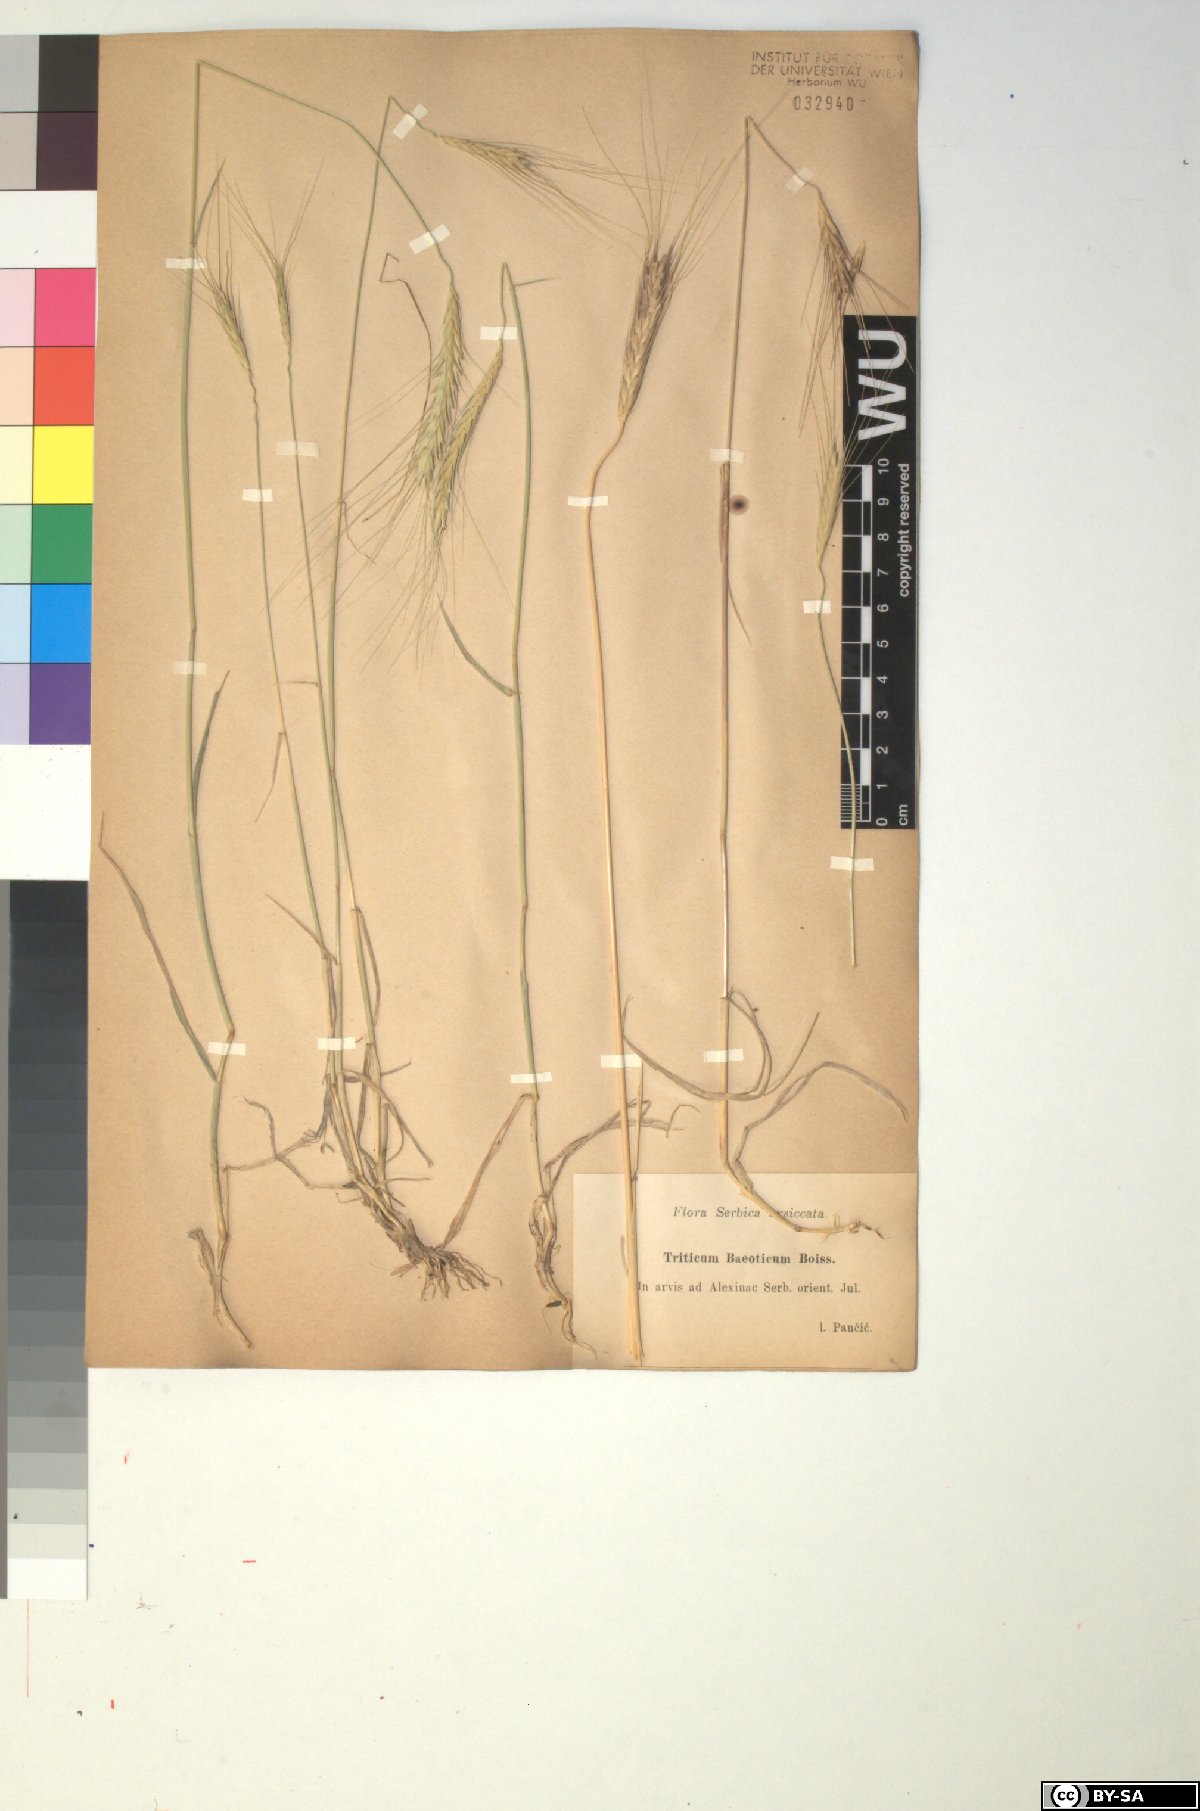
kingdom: Plantae
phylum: Tracheophyta
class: Liliopsida
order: Poales
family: Poaceae
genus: Triticum
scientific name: Triticum monococcum
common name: Einkorn
